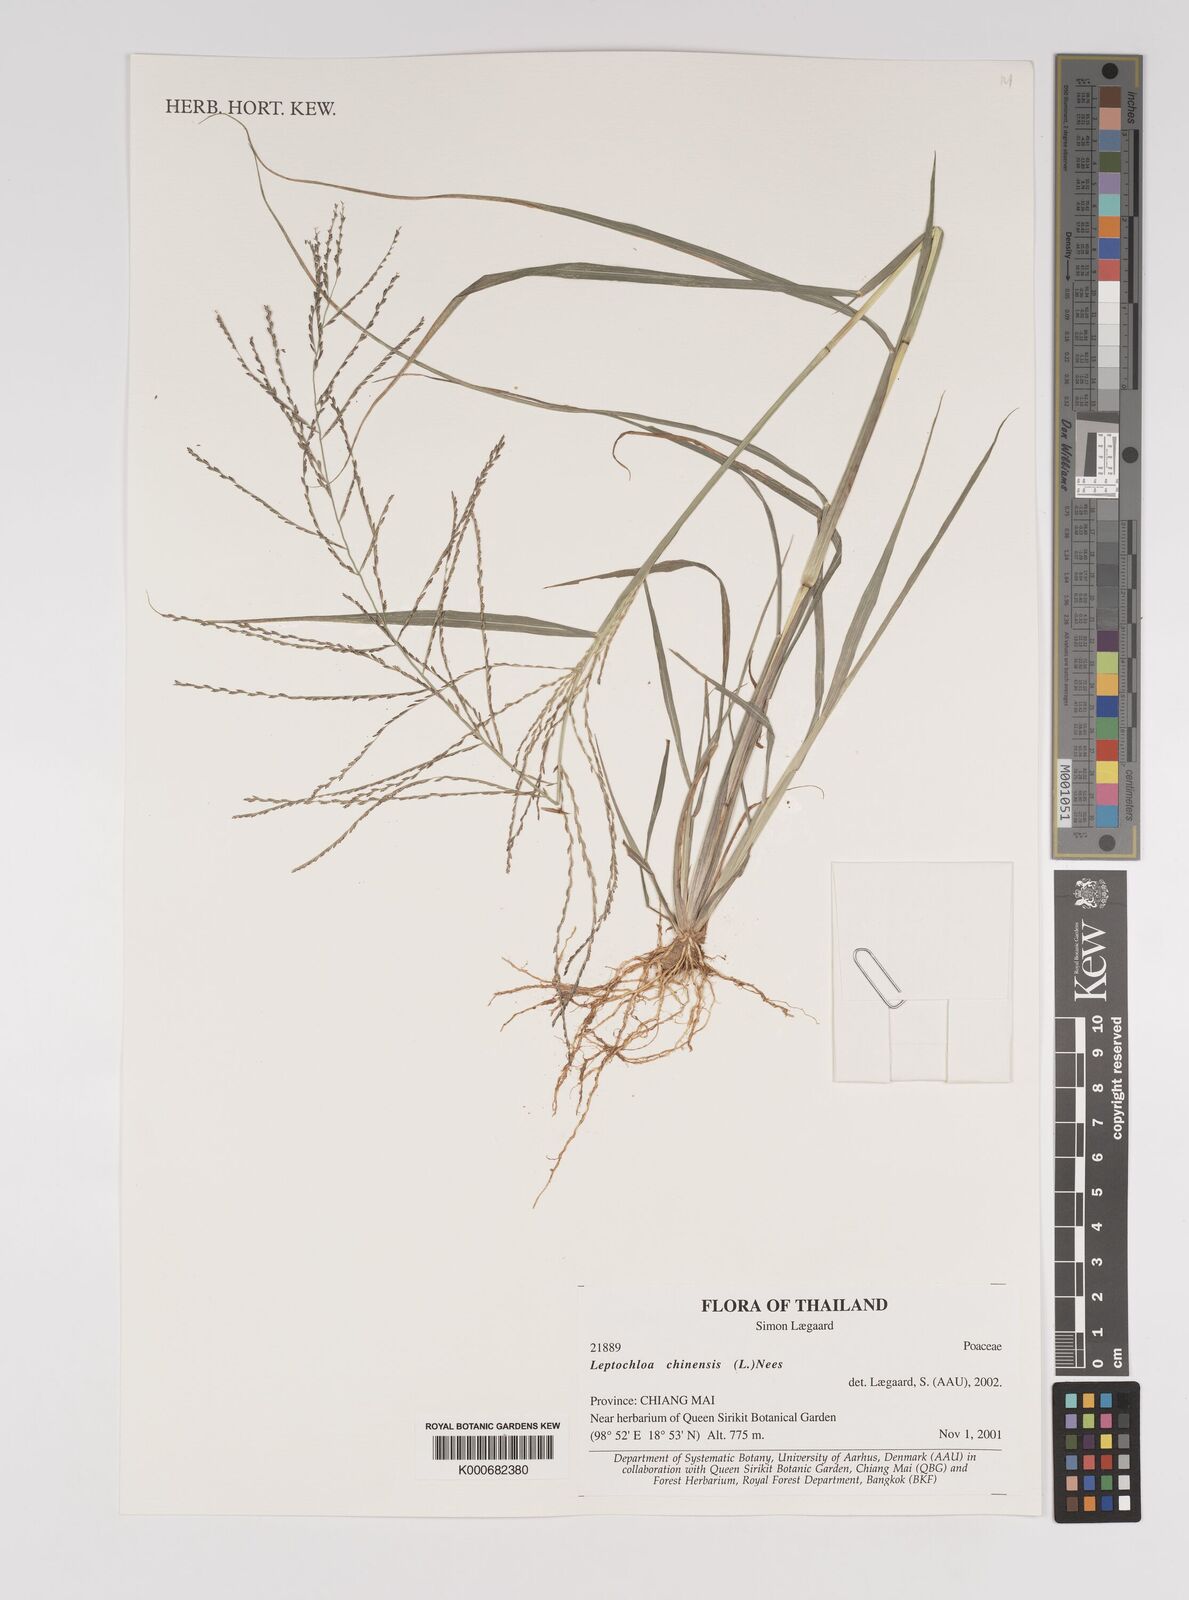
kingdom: Plantae
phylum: Tracheophyta
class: Liliopsida
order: Poales
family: Poaceae
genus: Leptochloa
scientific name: Leptochloa chinensis
